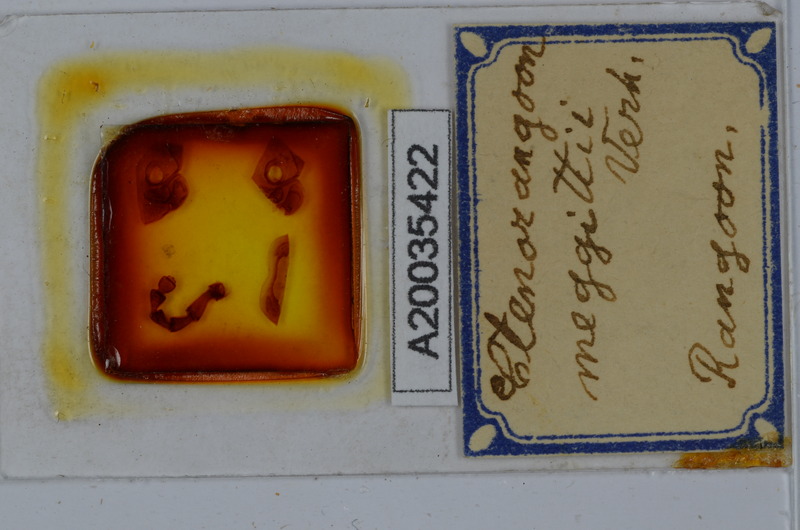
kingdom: Animalia
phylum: Arthropoda
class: Diplopoda
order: Spirostreptida
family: Harpagophoridae
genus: Ctenorangoon
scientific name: Ctenorangoon feae
